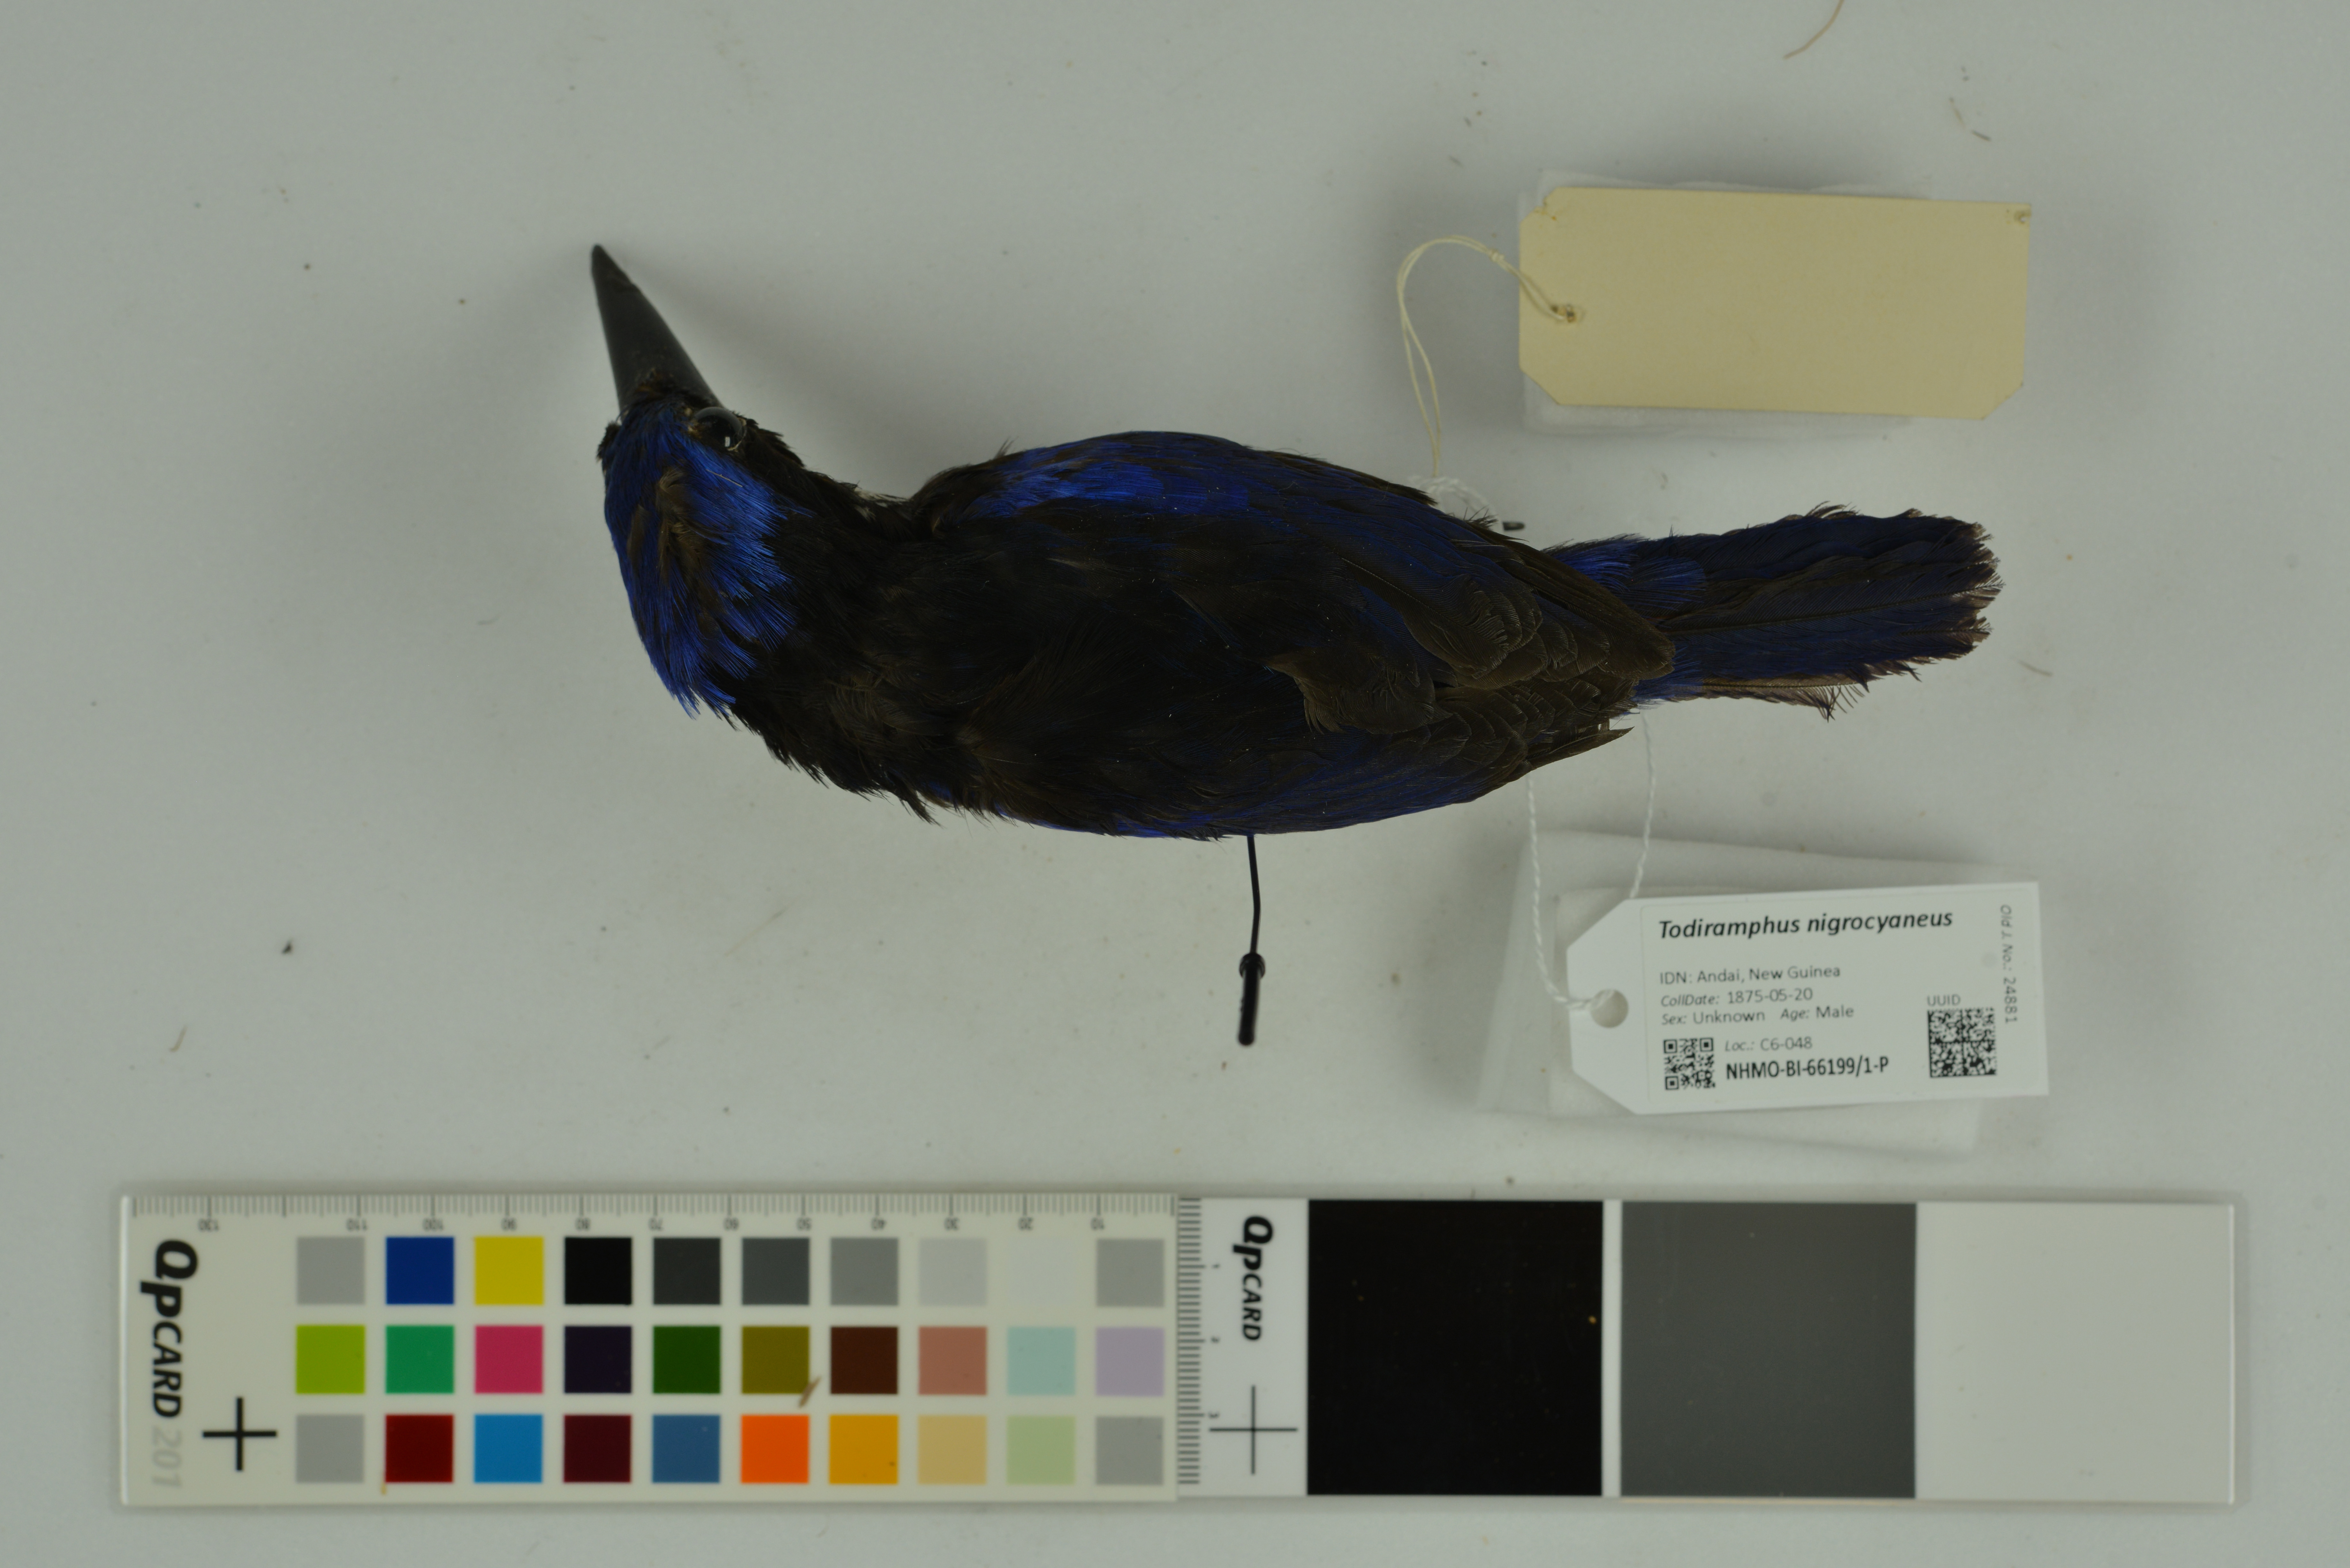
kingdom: Animalia
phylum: Chordata
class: Aves
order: Coraciiformes
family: Alcedinidae
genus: Todiramphus
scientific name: Todiramphus nigrocyaneus
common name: Blue-black kingfisher
